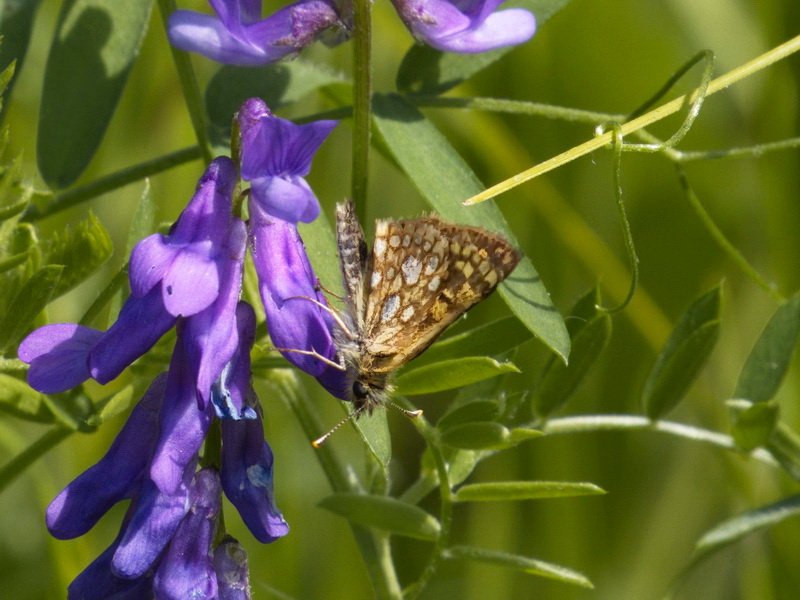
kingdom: Animalia
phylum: Arthropoda
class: Insecta
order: Lepidoptera
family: Hesperiidae
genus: Carterocephalus
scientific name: Carterocephalus palaemon
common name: Chequered Skipper
